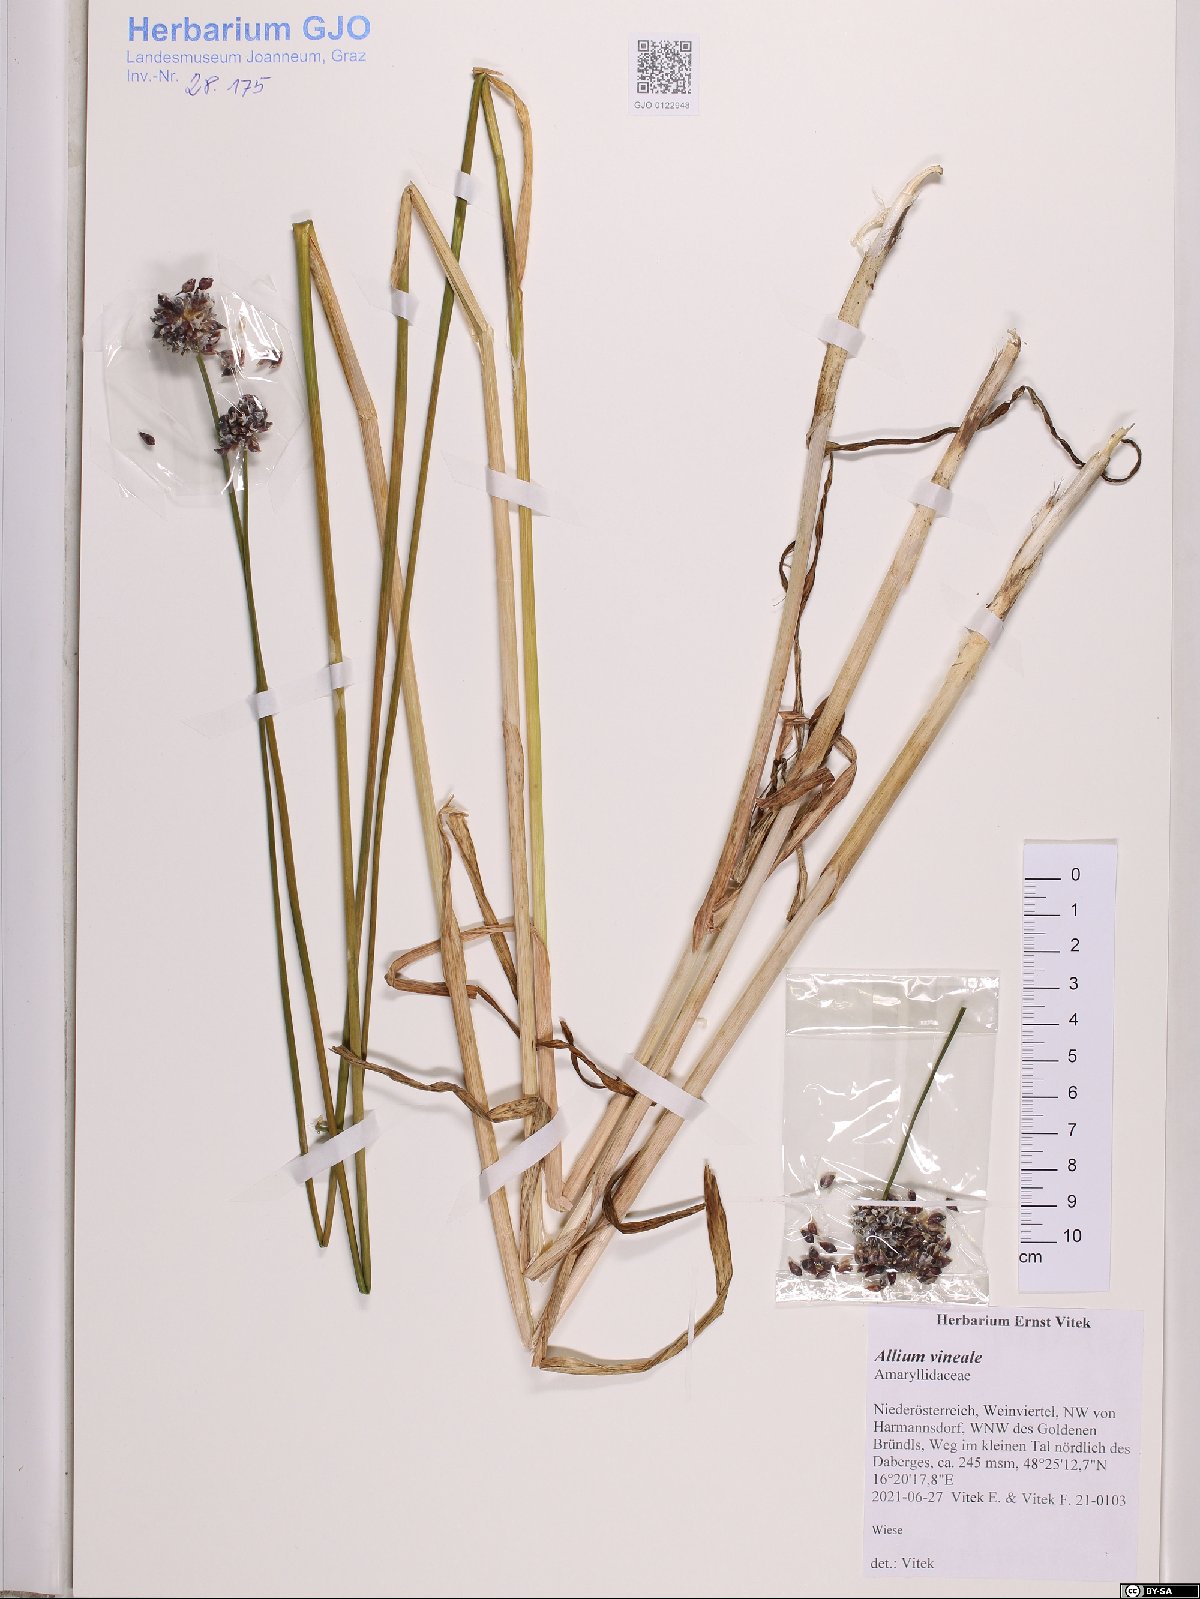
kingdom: Plantae
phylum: Tracheophyta
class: Liliopsida
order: Asparagales
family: Amaryllidaceae
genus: Allium
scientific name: Allium vineale
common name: Crow garlic
